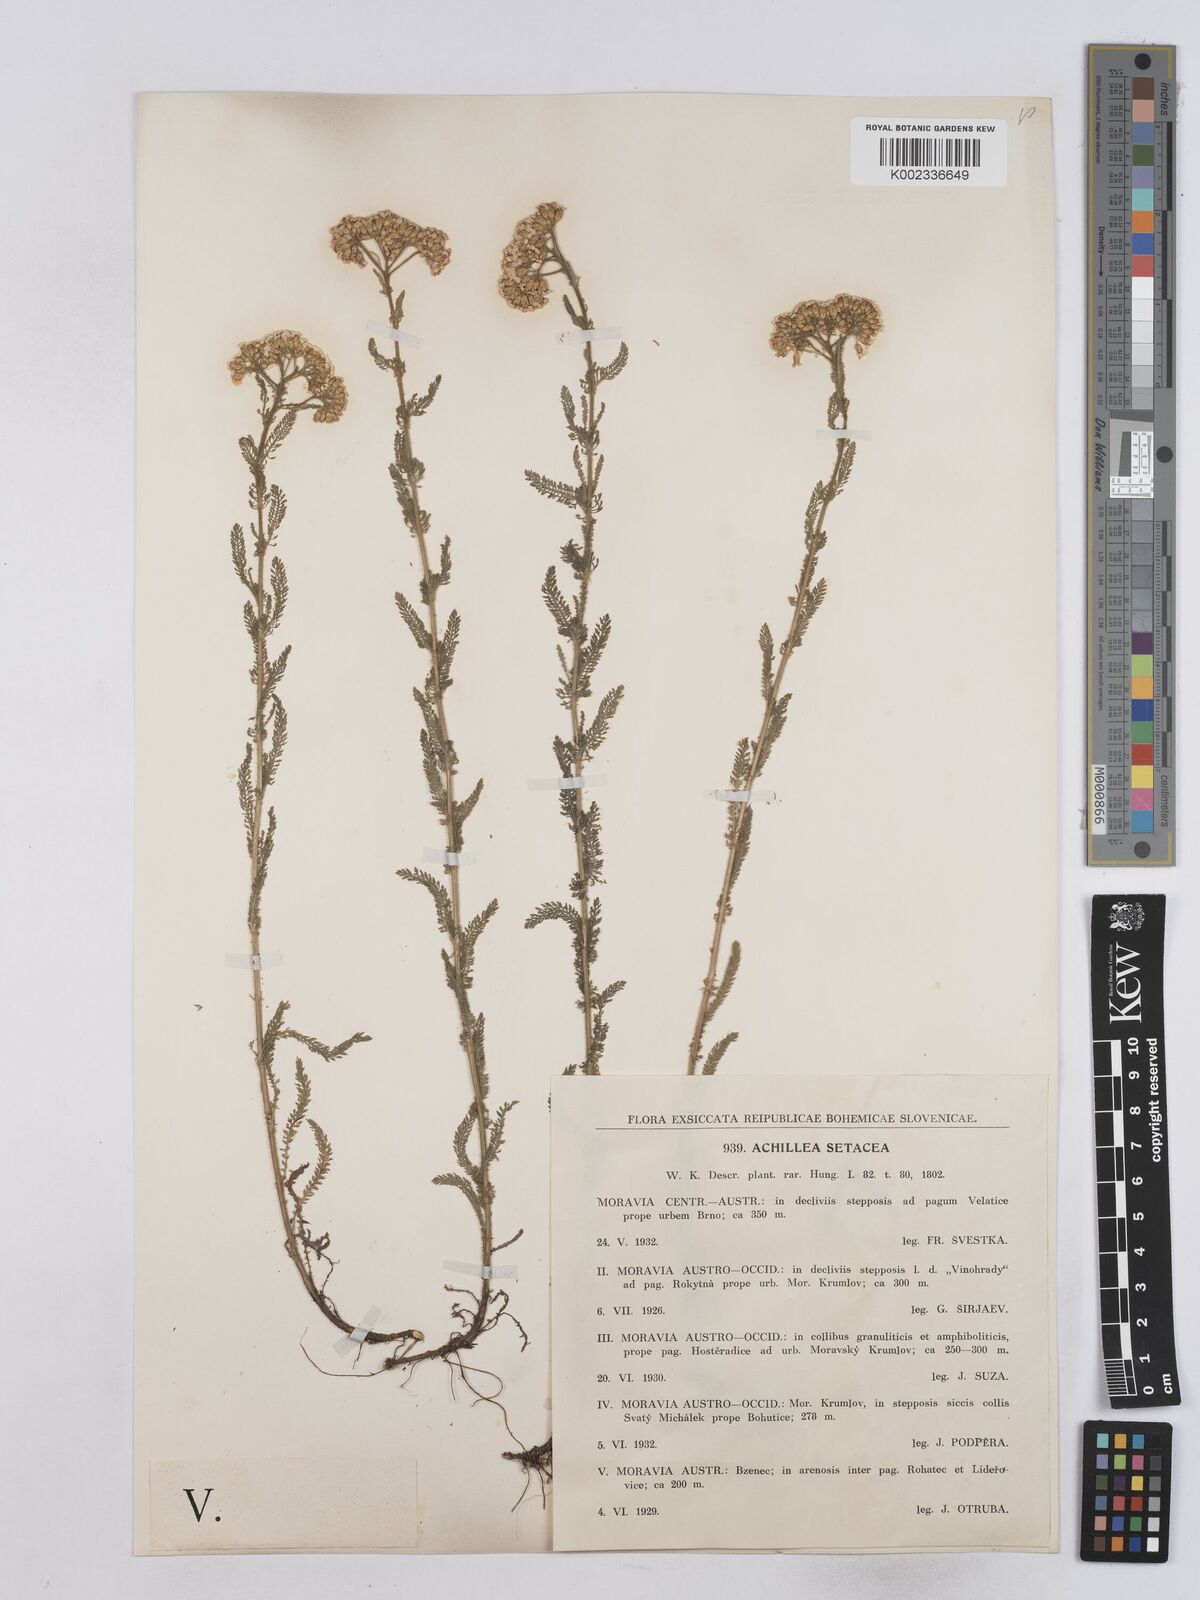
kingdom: Plantae
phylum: Tracheophyta
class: Magnoliopsida
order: Asterales
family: Asteraceae
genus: Achillea
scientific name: Achillea setacea
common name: Bristly yarrow
